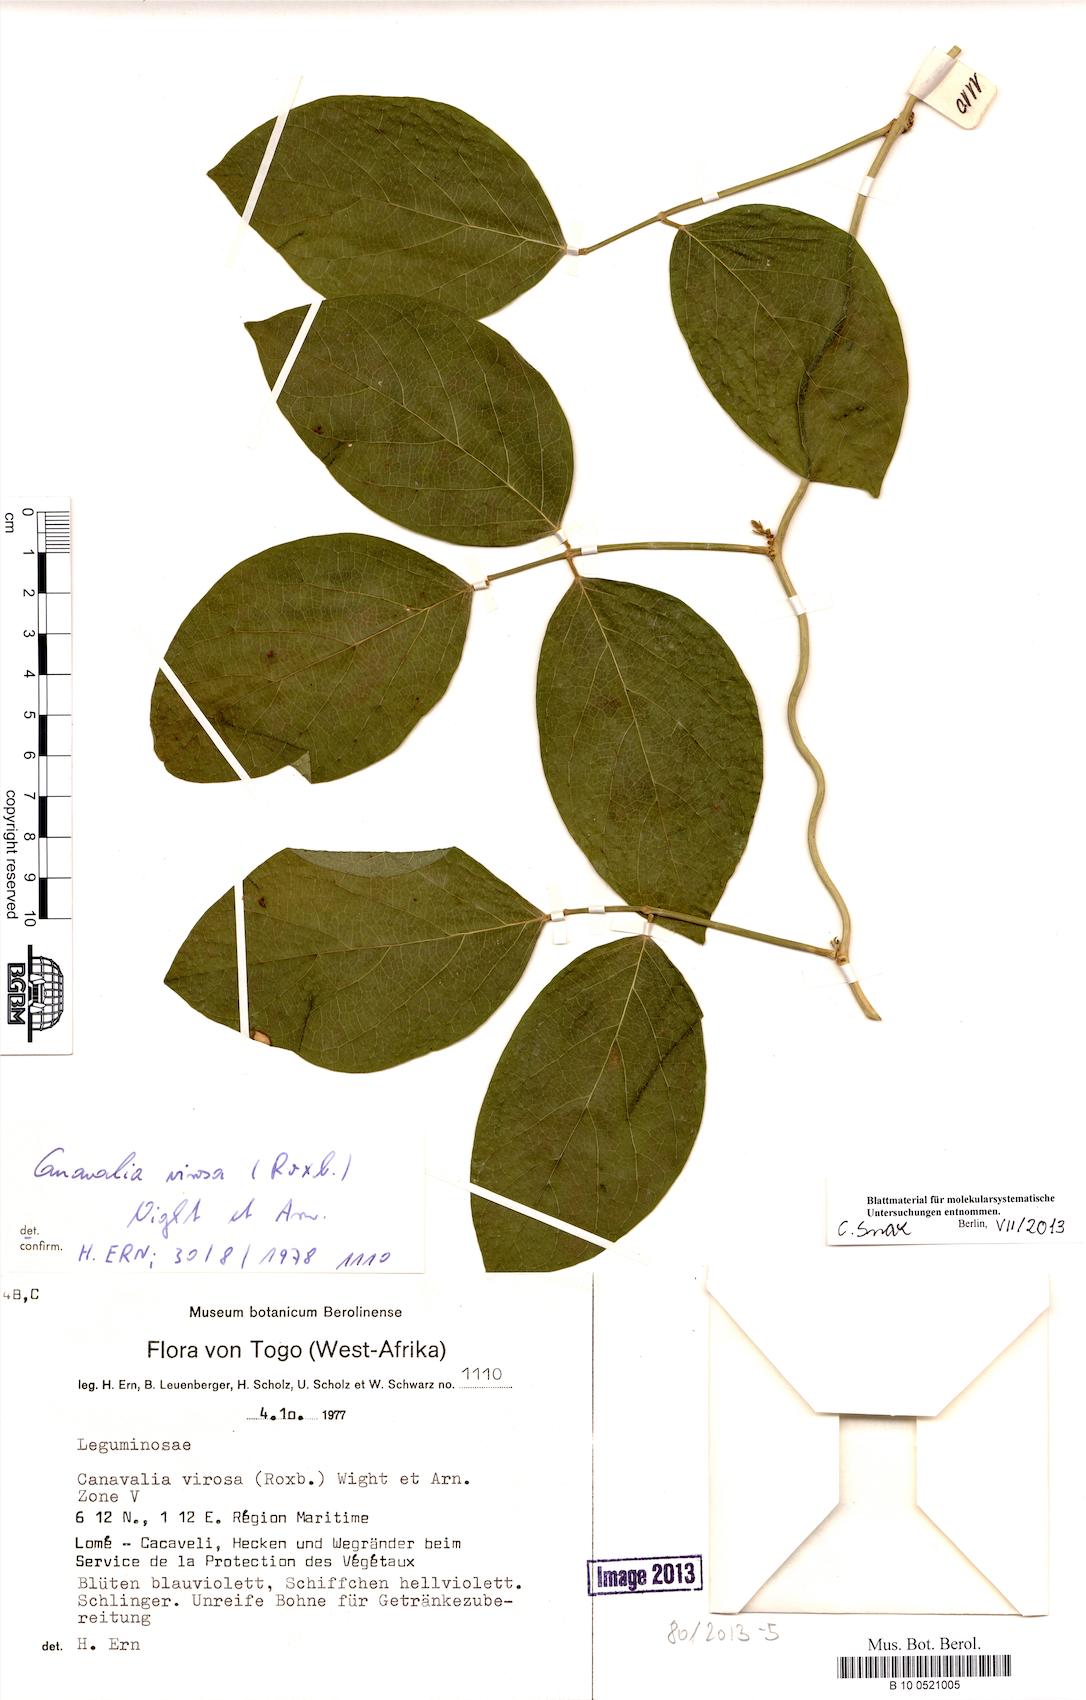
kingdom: Plantae
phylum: Tracheophyta
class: Magnoliopsida
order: Fabales
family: Fabaceae
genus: Canavalia
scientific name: Canavalia cathartica
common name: Maunaloa
